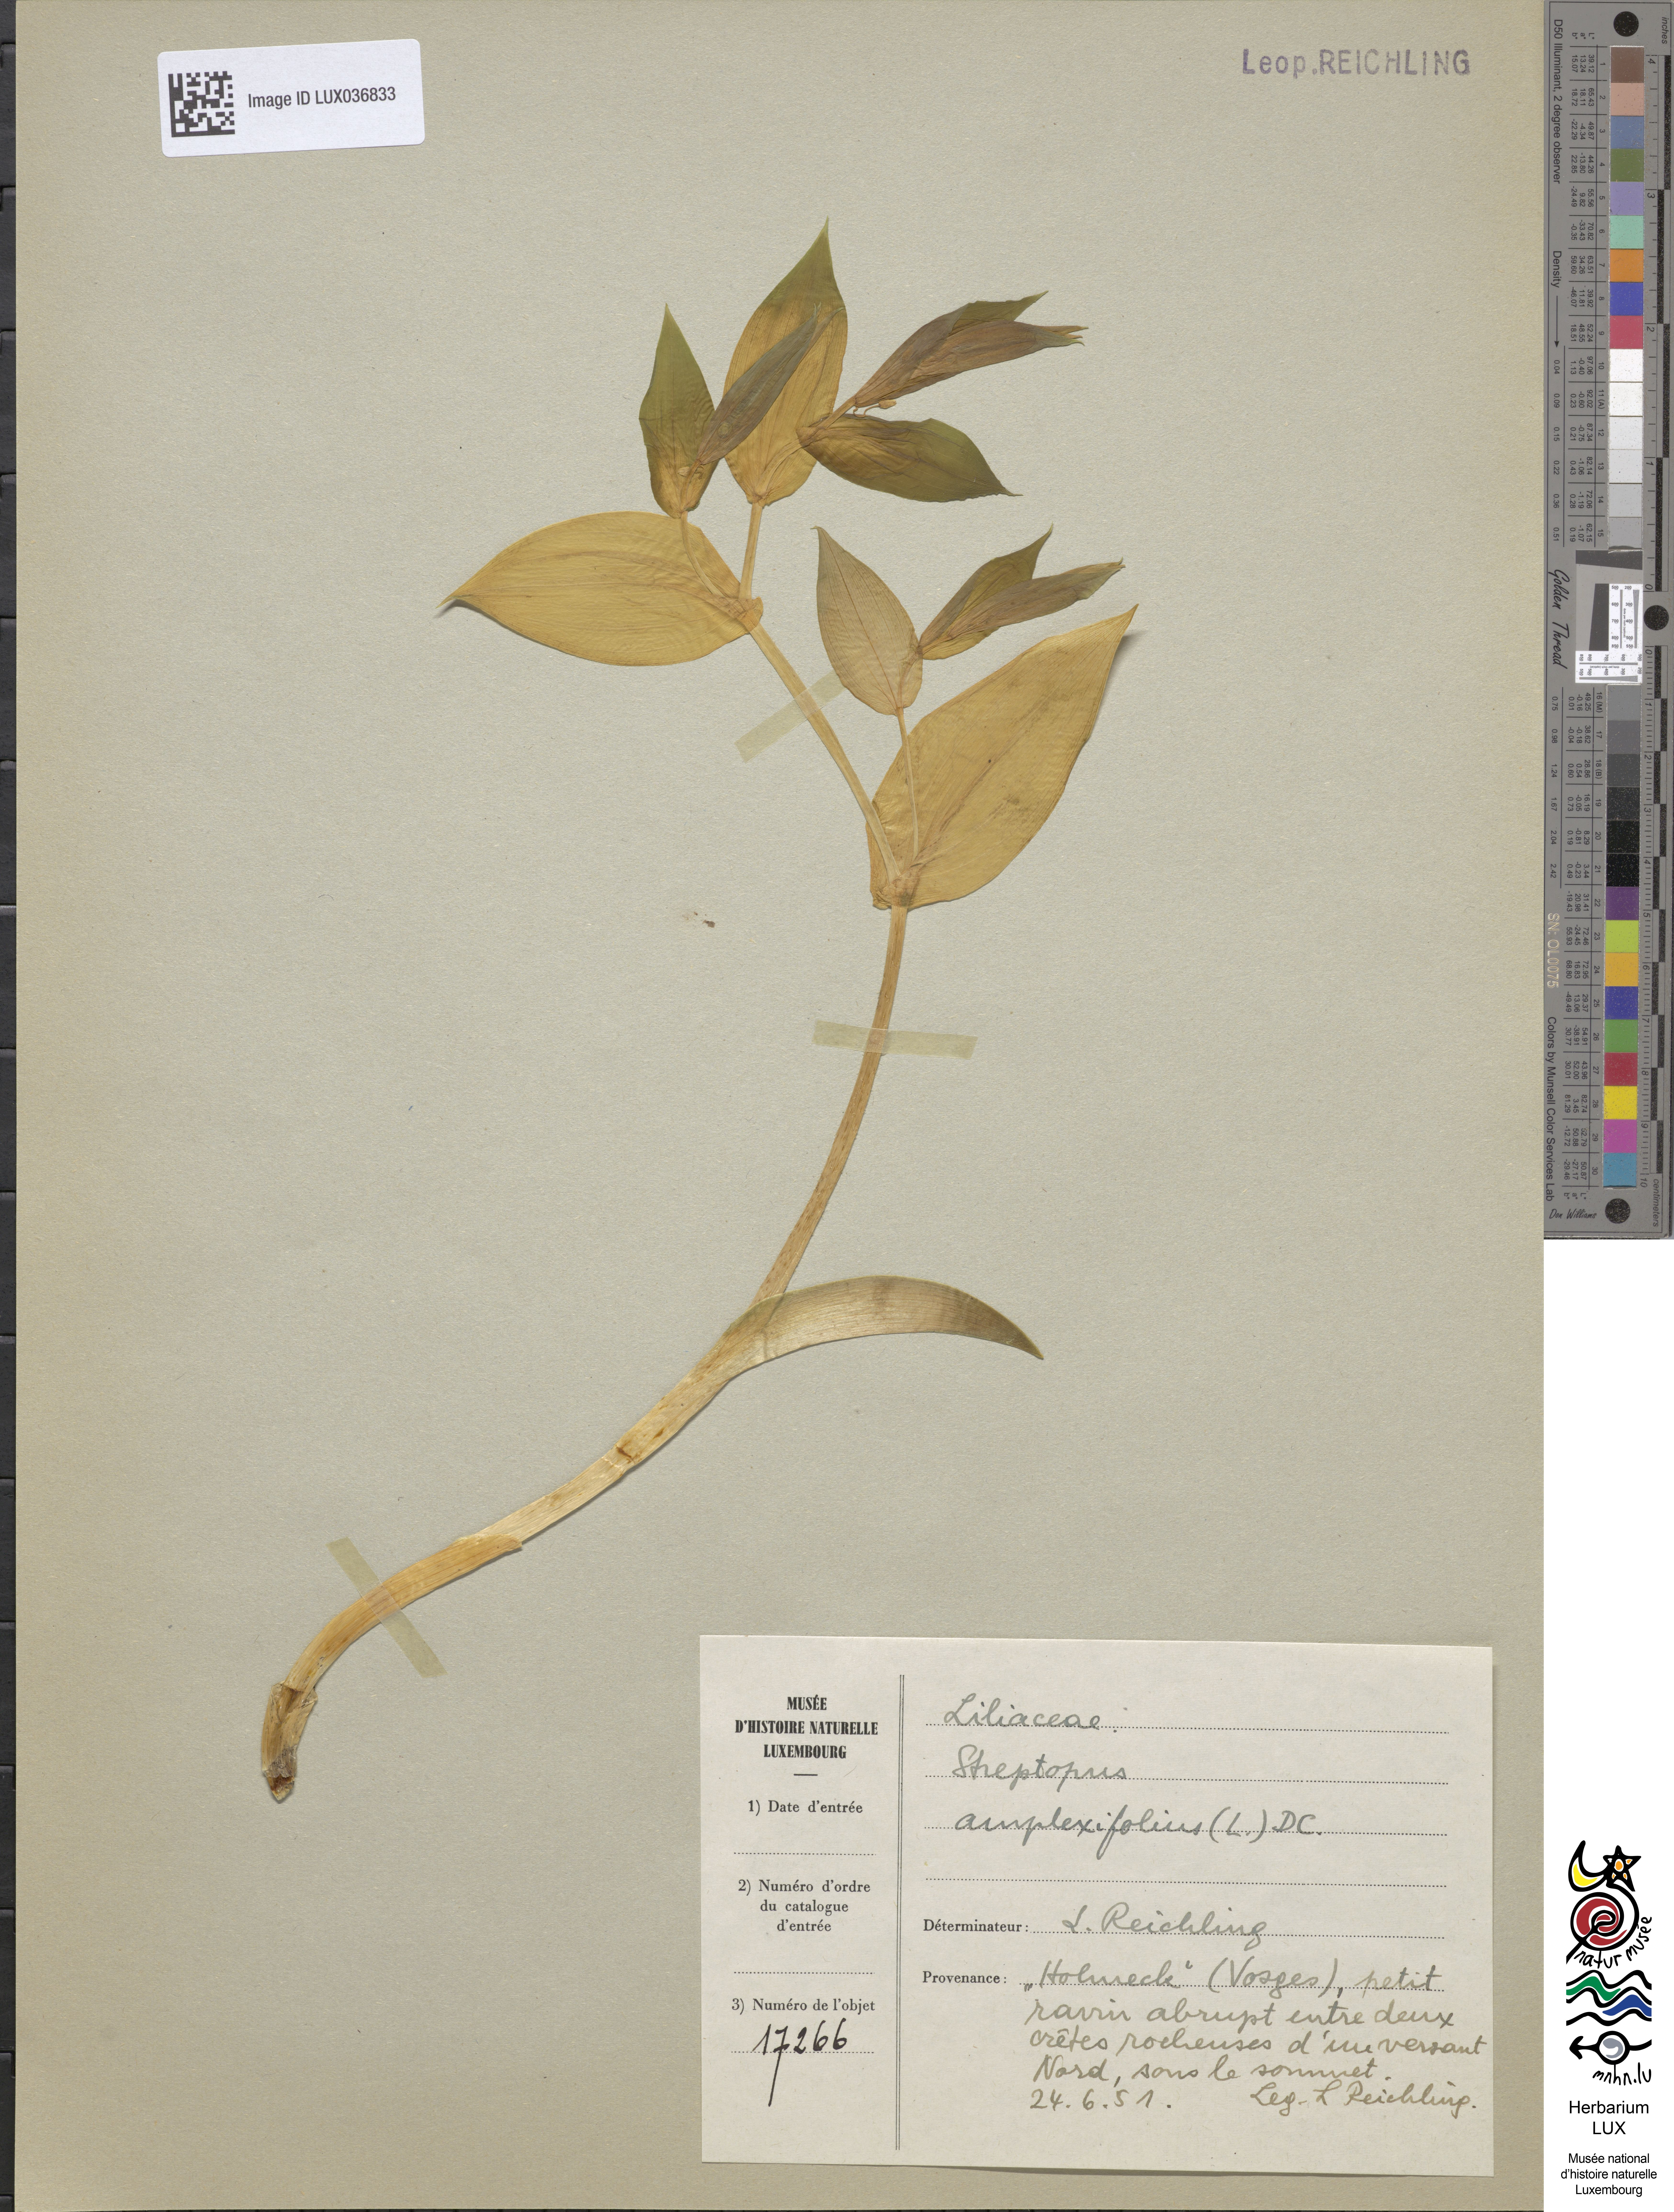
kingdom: Plantae
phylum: Tracheophyta
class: Liliopsida
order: Liliales
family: Liliaceae
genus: Streptopus
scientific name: Streptopus amplexifolius
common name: Clasp twisted stalk
